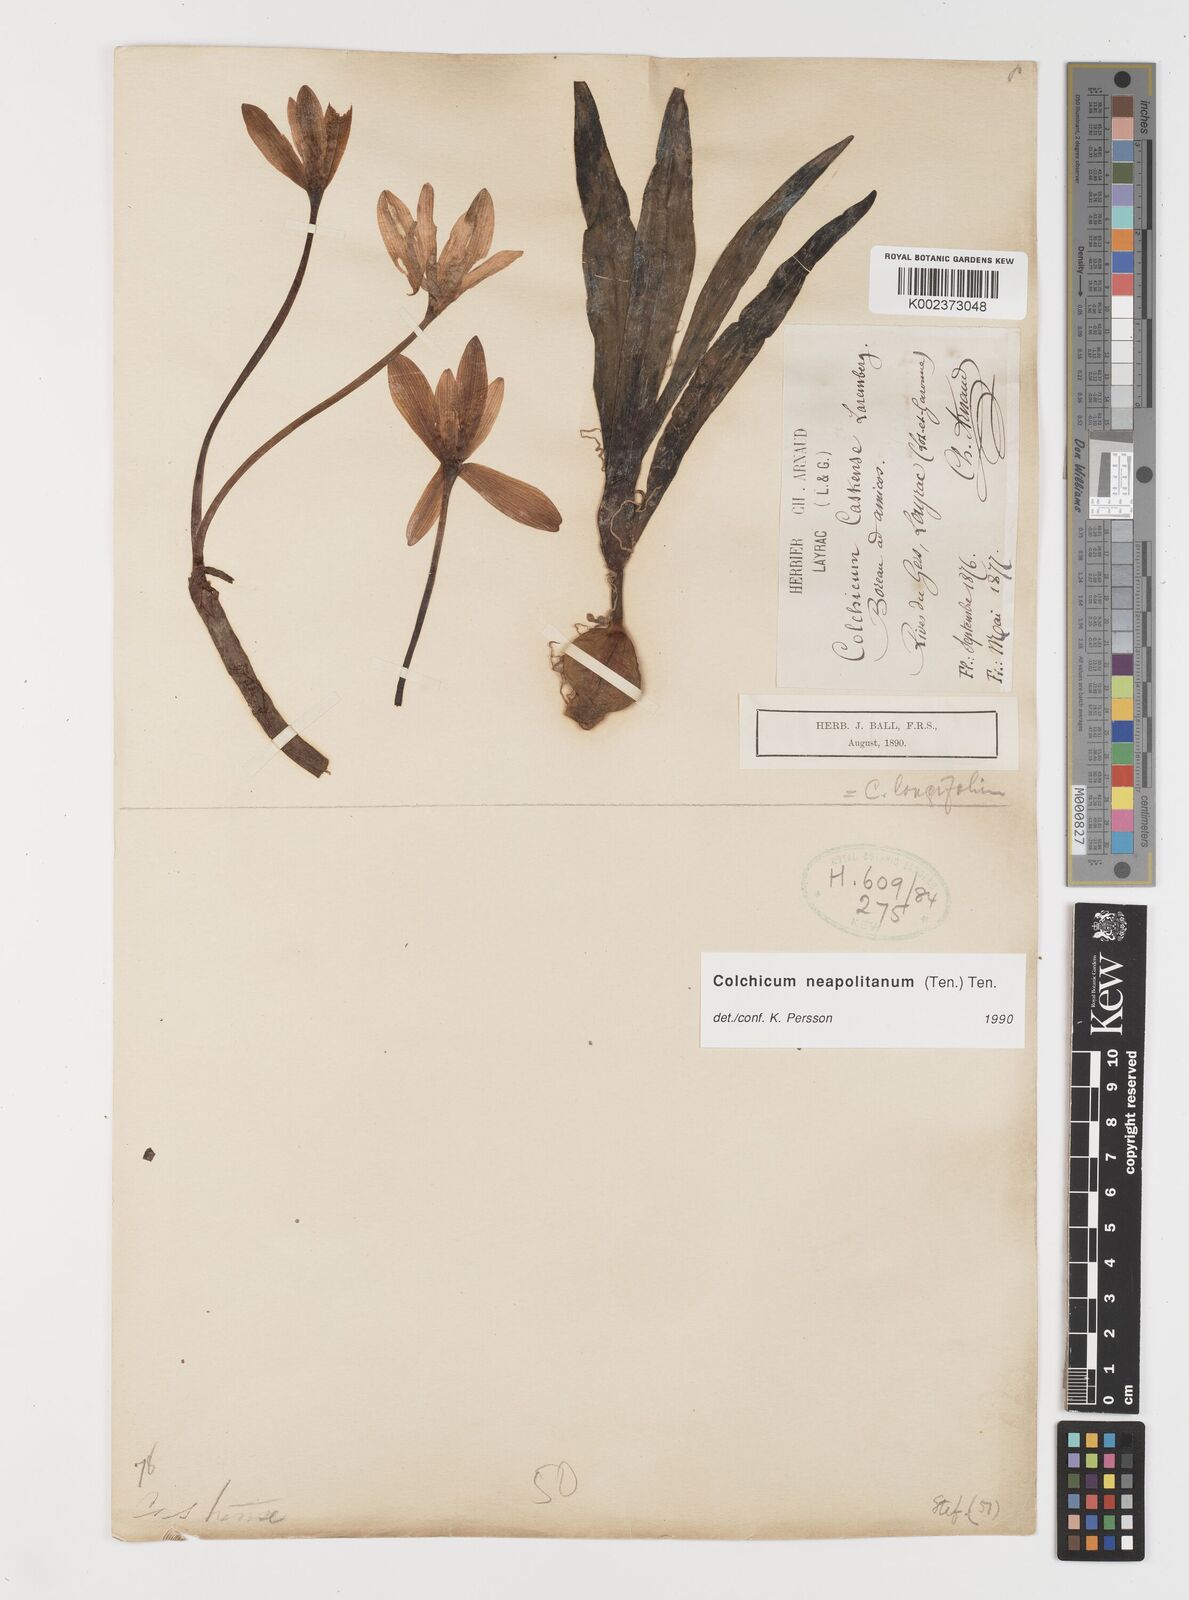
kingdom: Plantae
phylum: Tracheophyta
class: Liliopsida
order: Liliales
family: Colchicaceae
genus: Colchicum
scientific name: Colchicum neapolitanum
